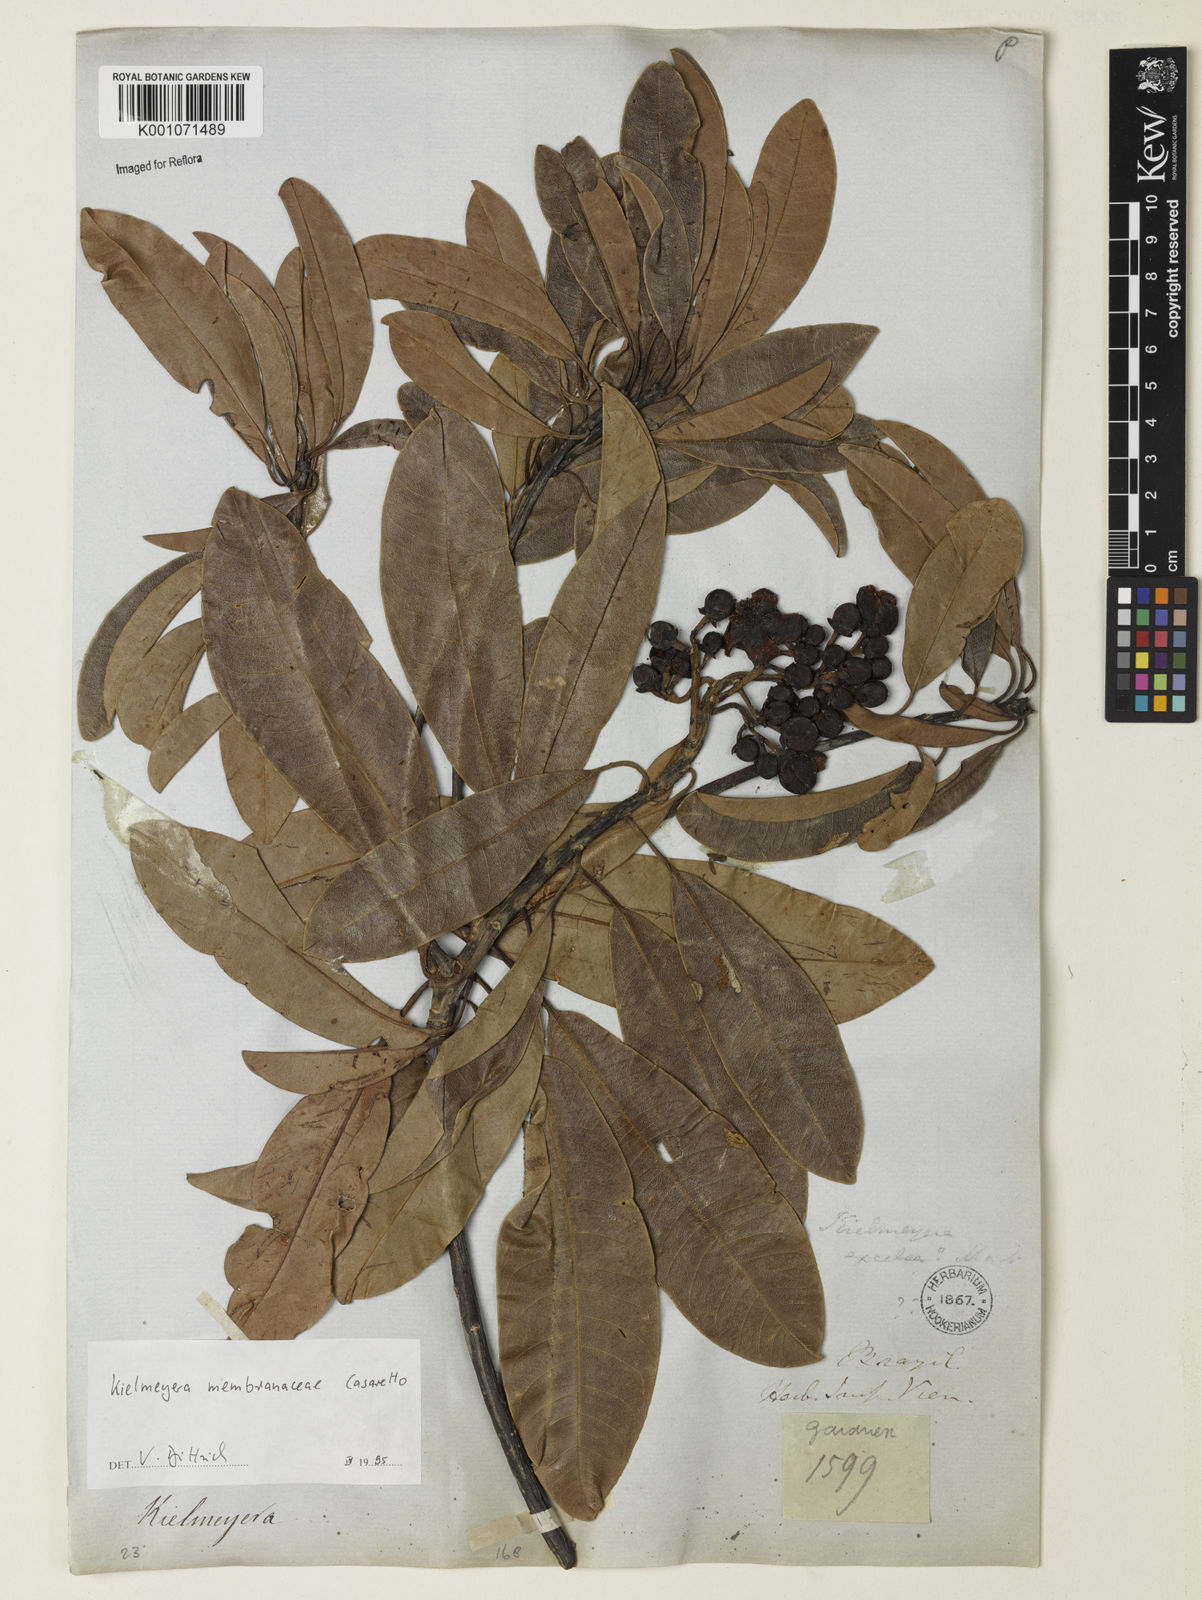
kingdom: Plantae
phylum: Tracheophyta
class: Magnoliopsida
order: Malpighiales
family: Calophyllaceae
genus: Kielmeyera
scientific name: Kielmeyera membranacea
